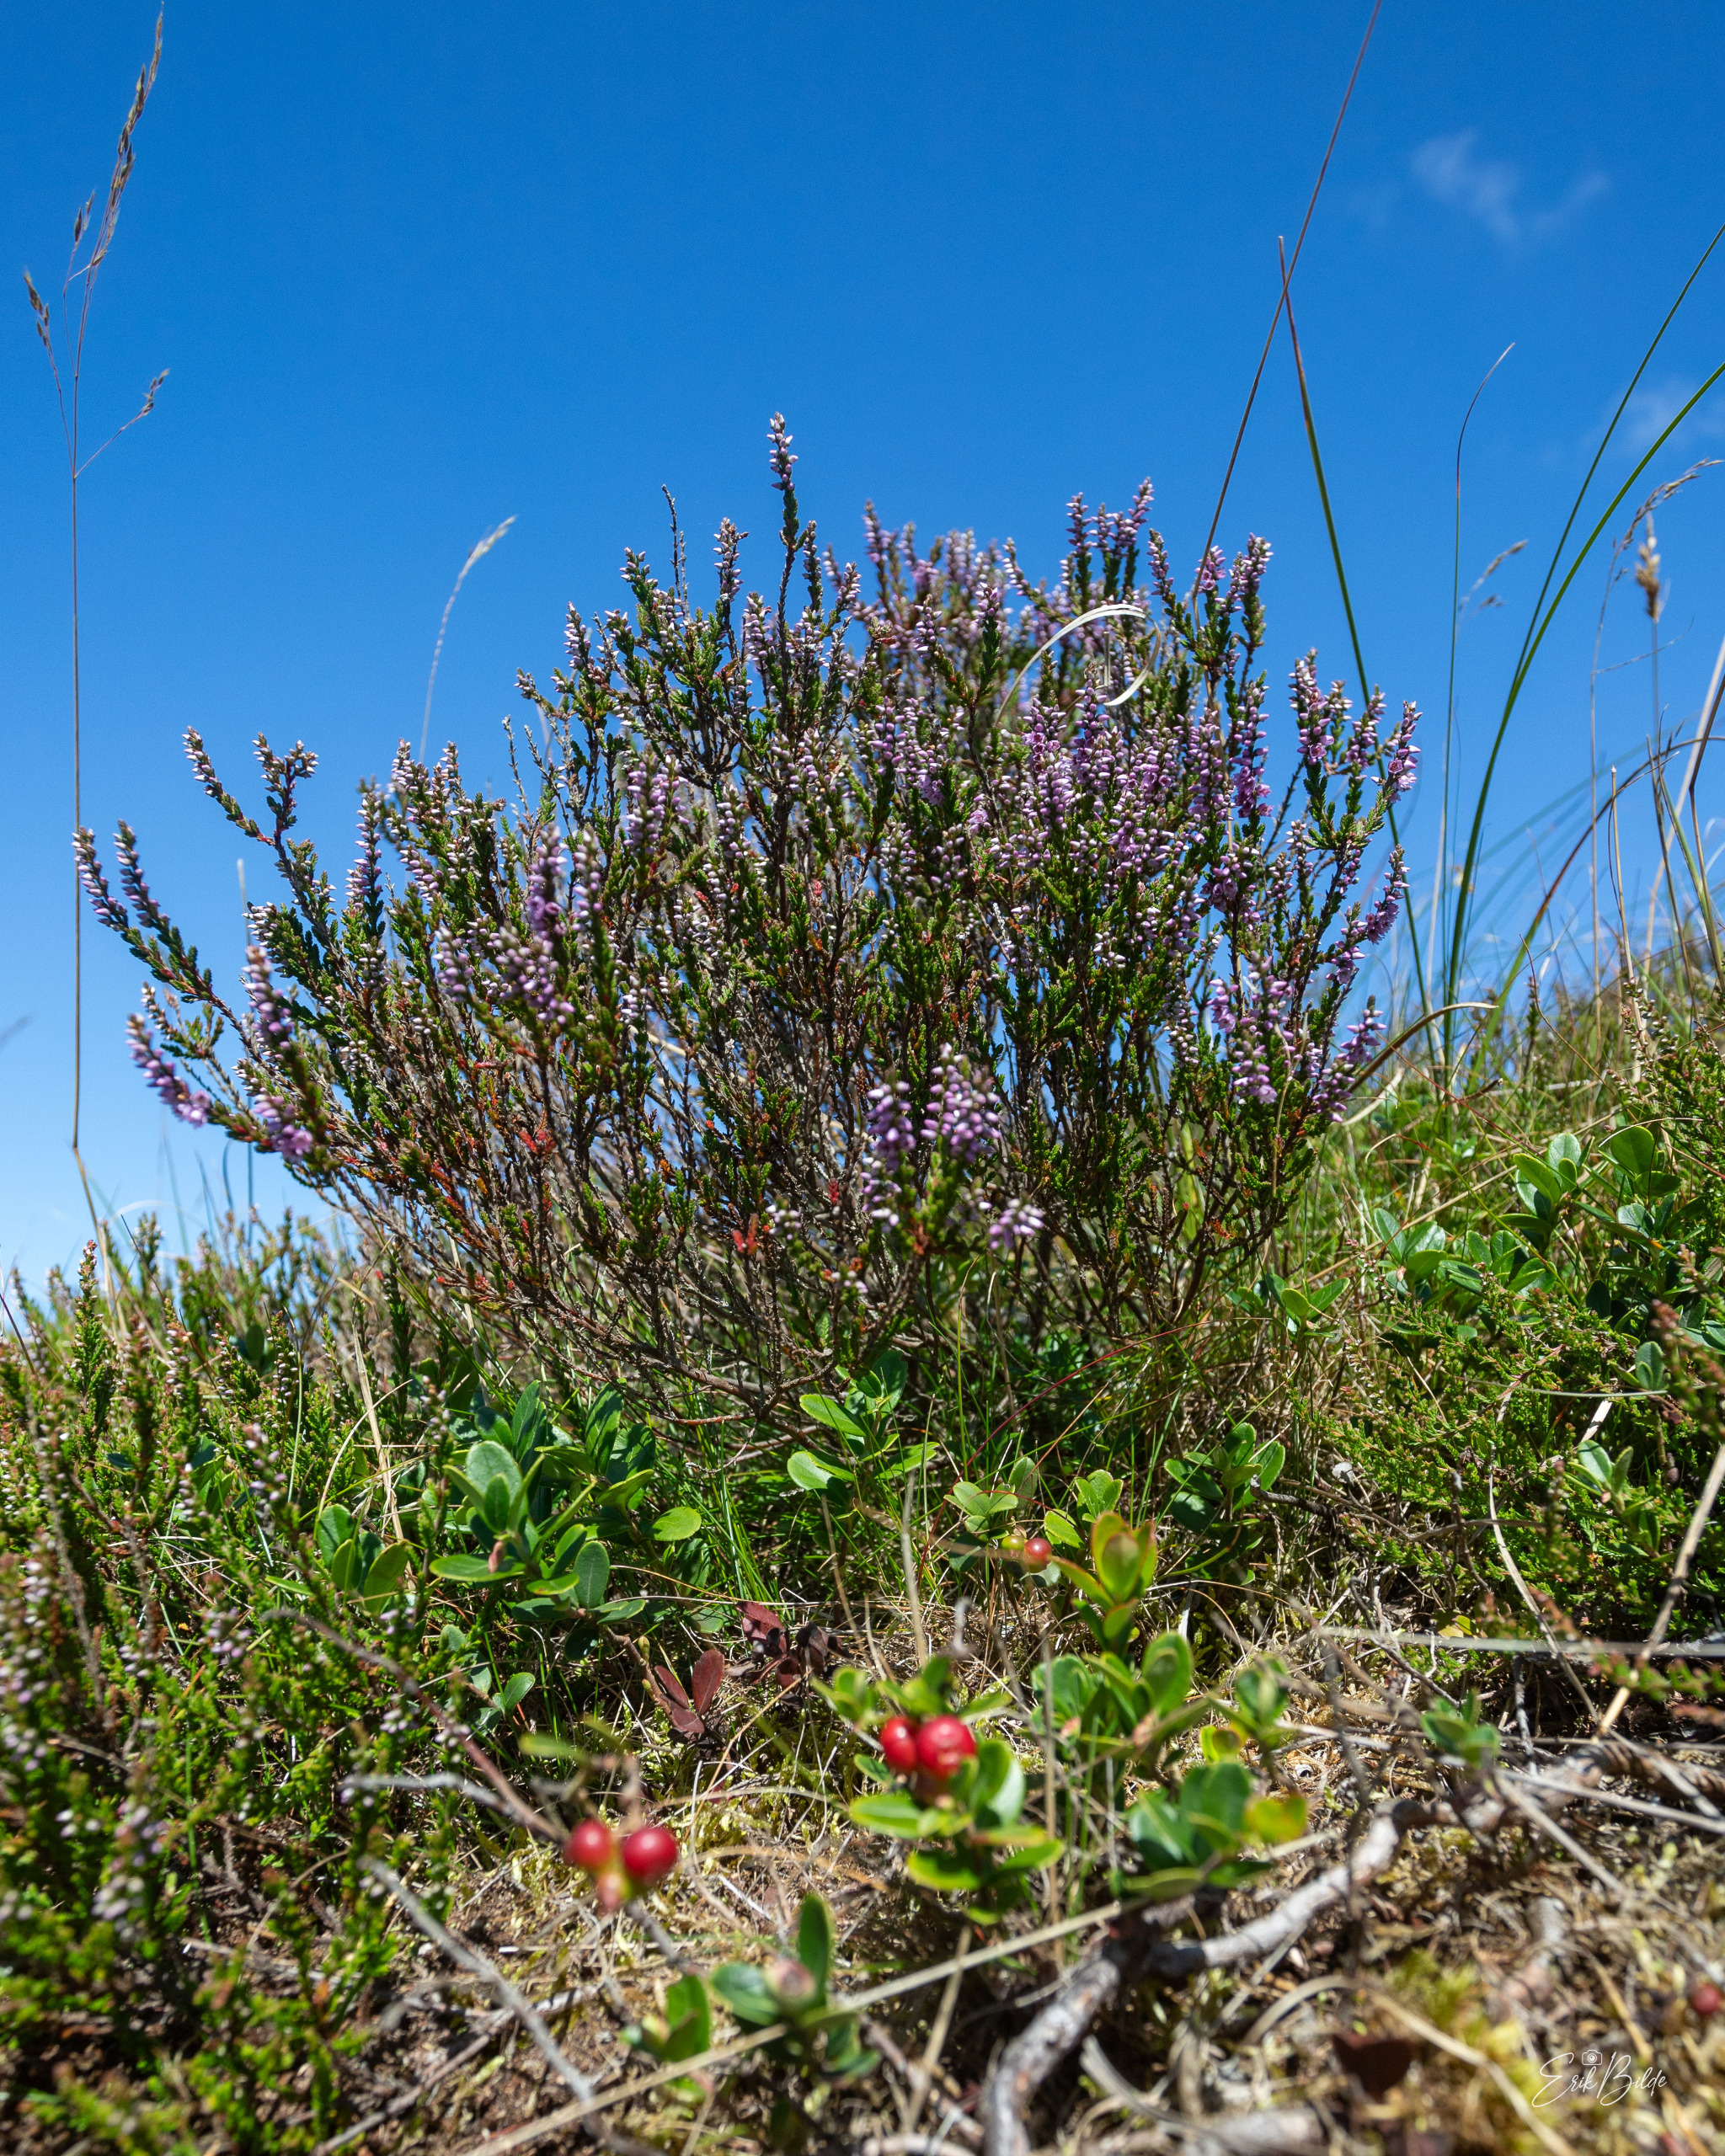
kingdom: Plantae
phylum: Tracheophyta
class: Magnoliopsida
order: Ericales
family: Ericaceae
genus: Calluna
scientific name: Calluna vulgaris
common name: Hedelyng
